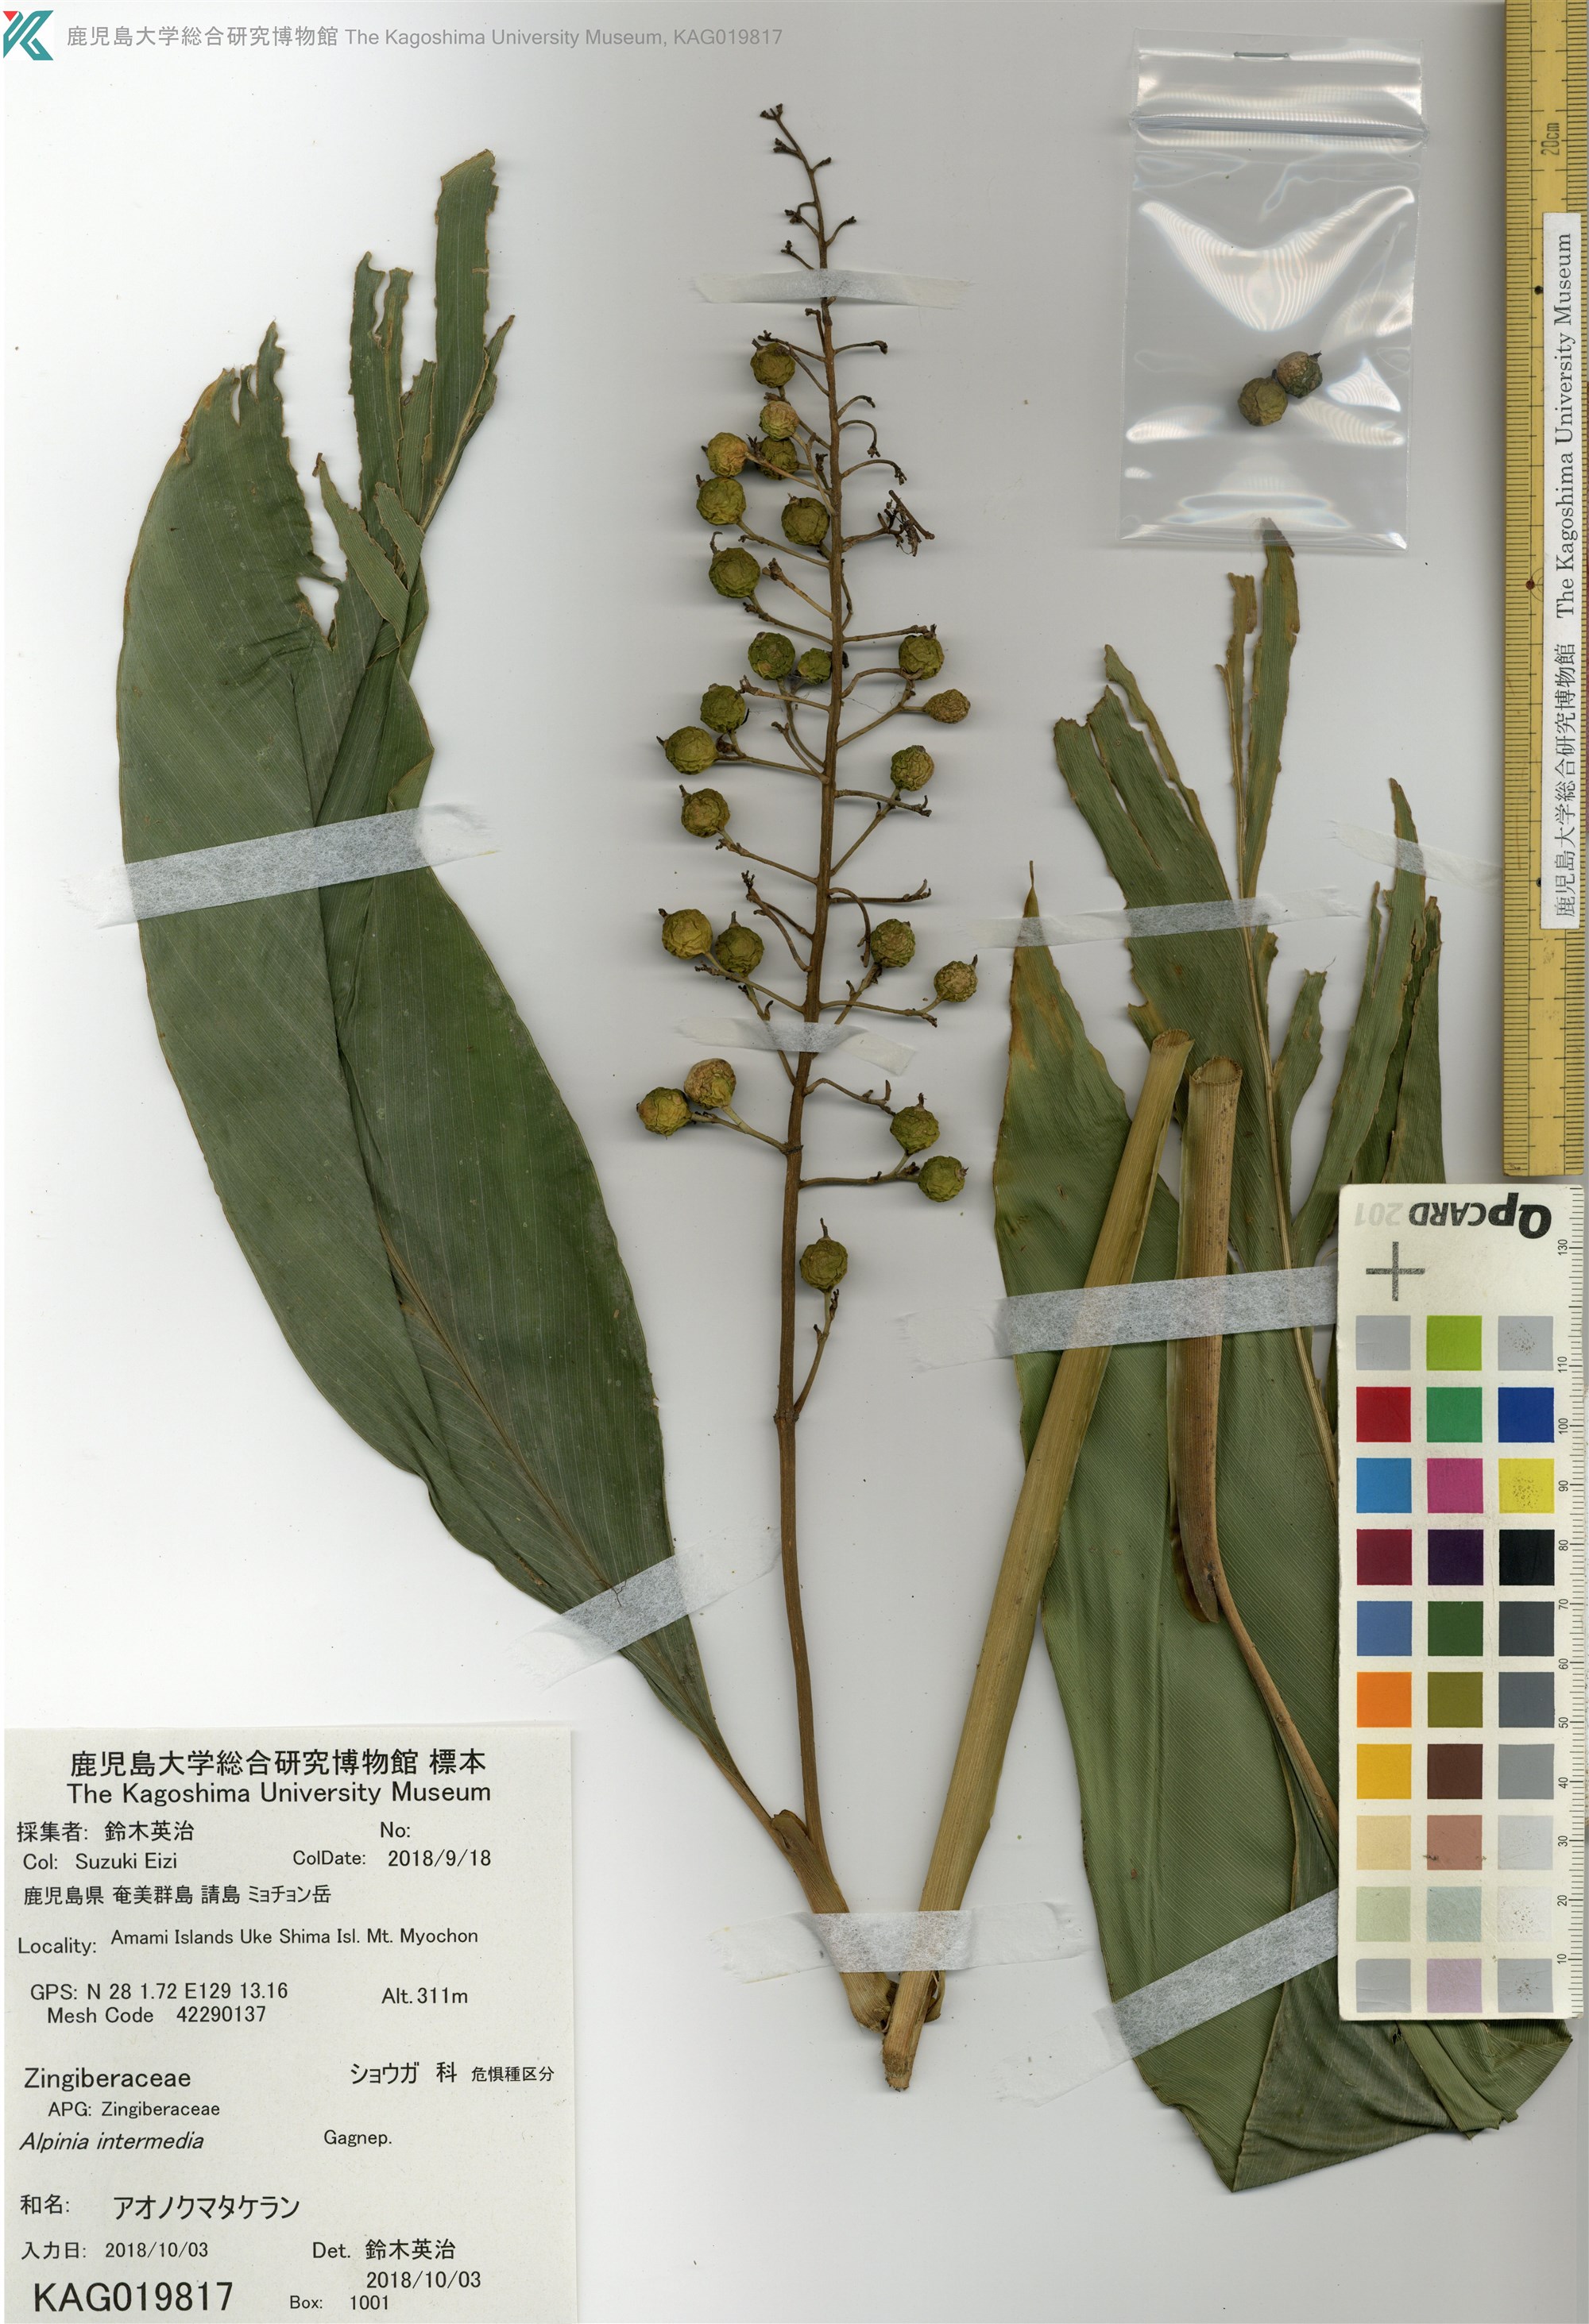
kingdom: Plantae
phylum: Tracheophyta
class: Liliopsida
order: Zingiberales
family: Zingiberaceae
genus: Alpinia
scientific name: Alpinia intermedia
